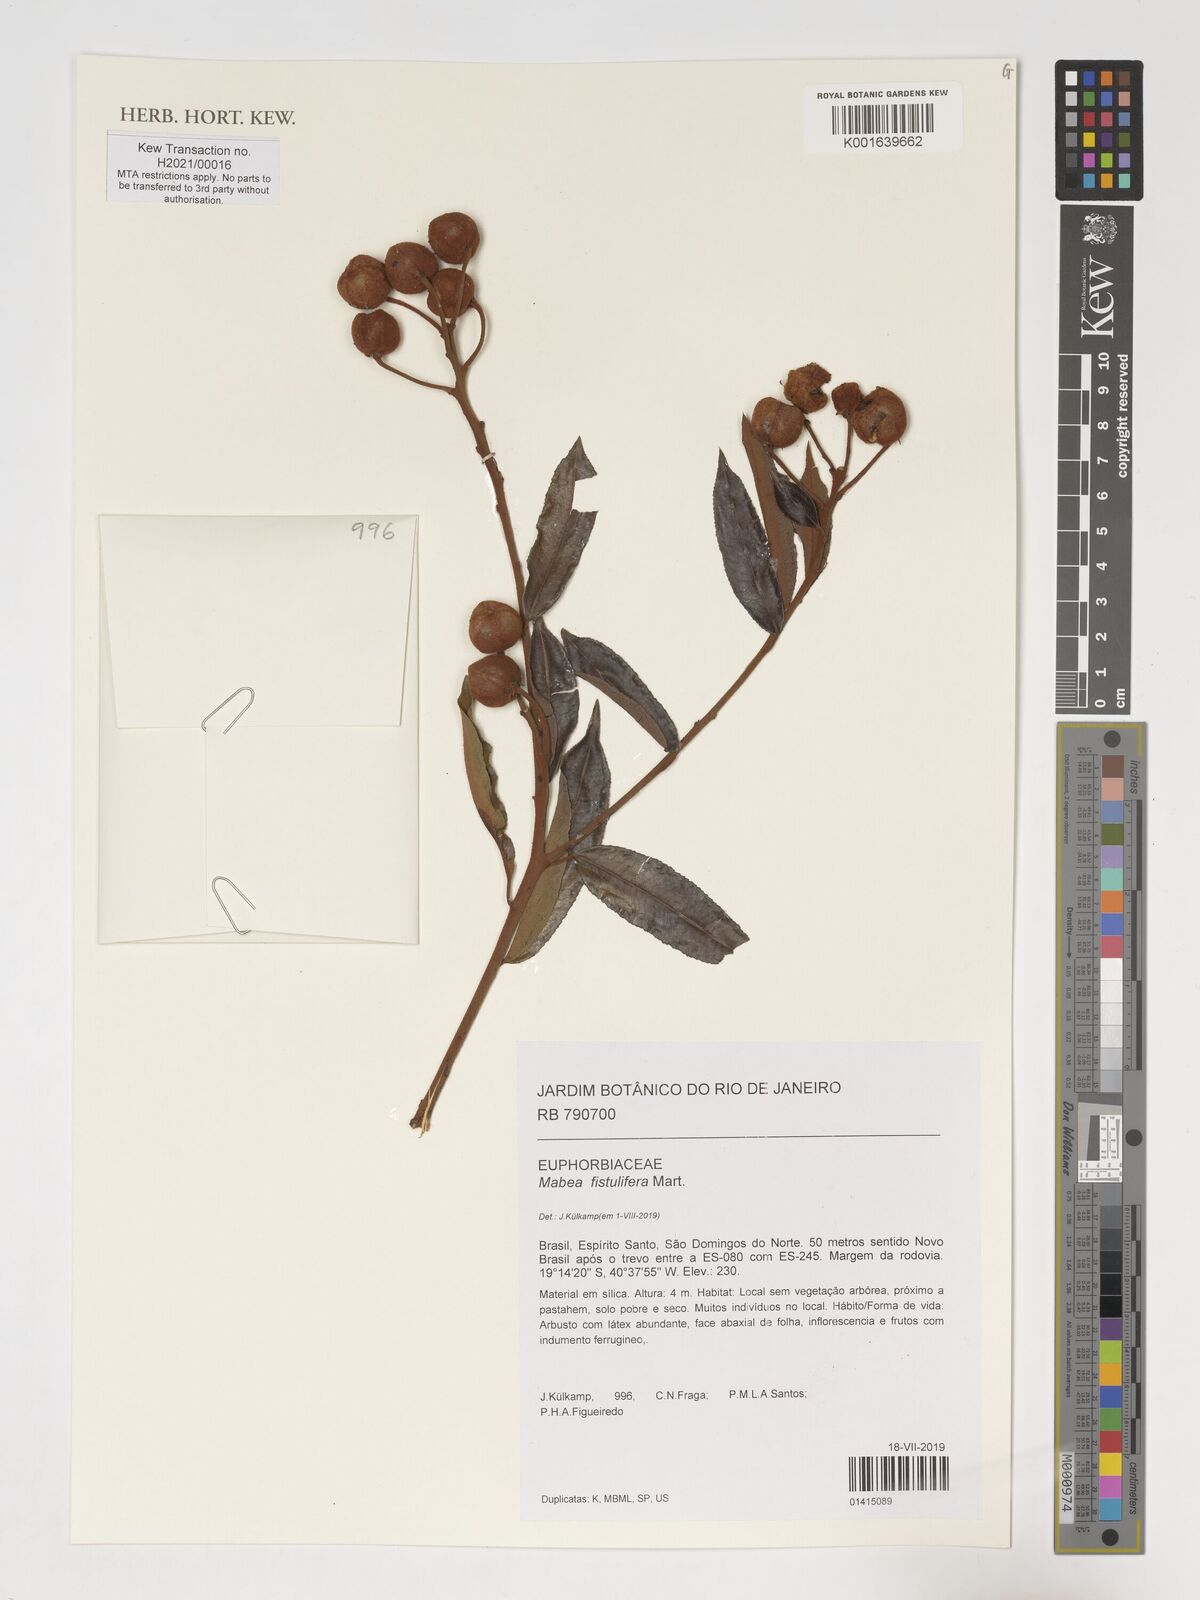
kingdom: Plantae
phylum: Tracheophyta
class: Magnoliopsida
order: Malpighiales
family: Euphorbiaceae
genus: Mabea
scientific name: Mabea fistulifera
